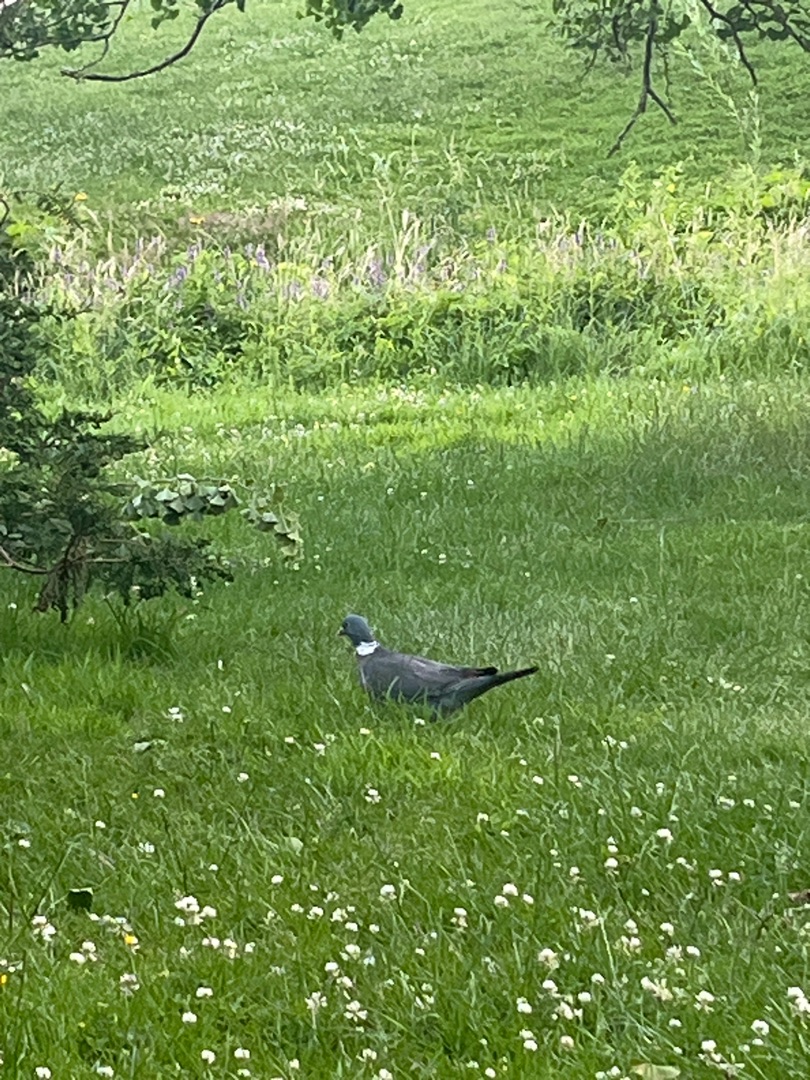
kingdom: Animalia
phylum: Chordata
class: Aves
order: Columbiformes
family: Columbidae
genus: Columba
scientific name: Columba palumbus
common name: Ringdue
